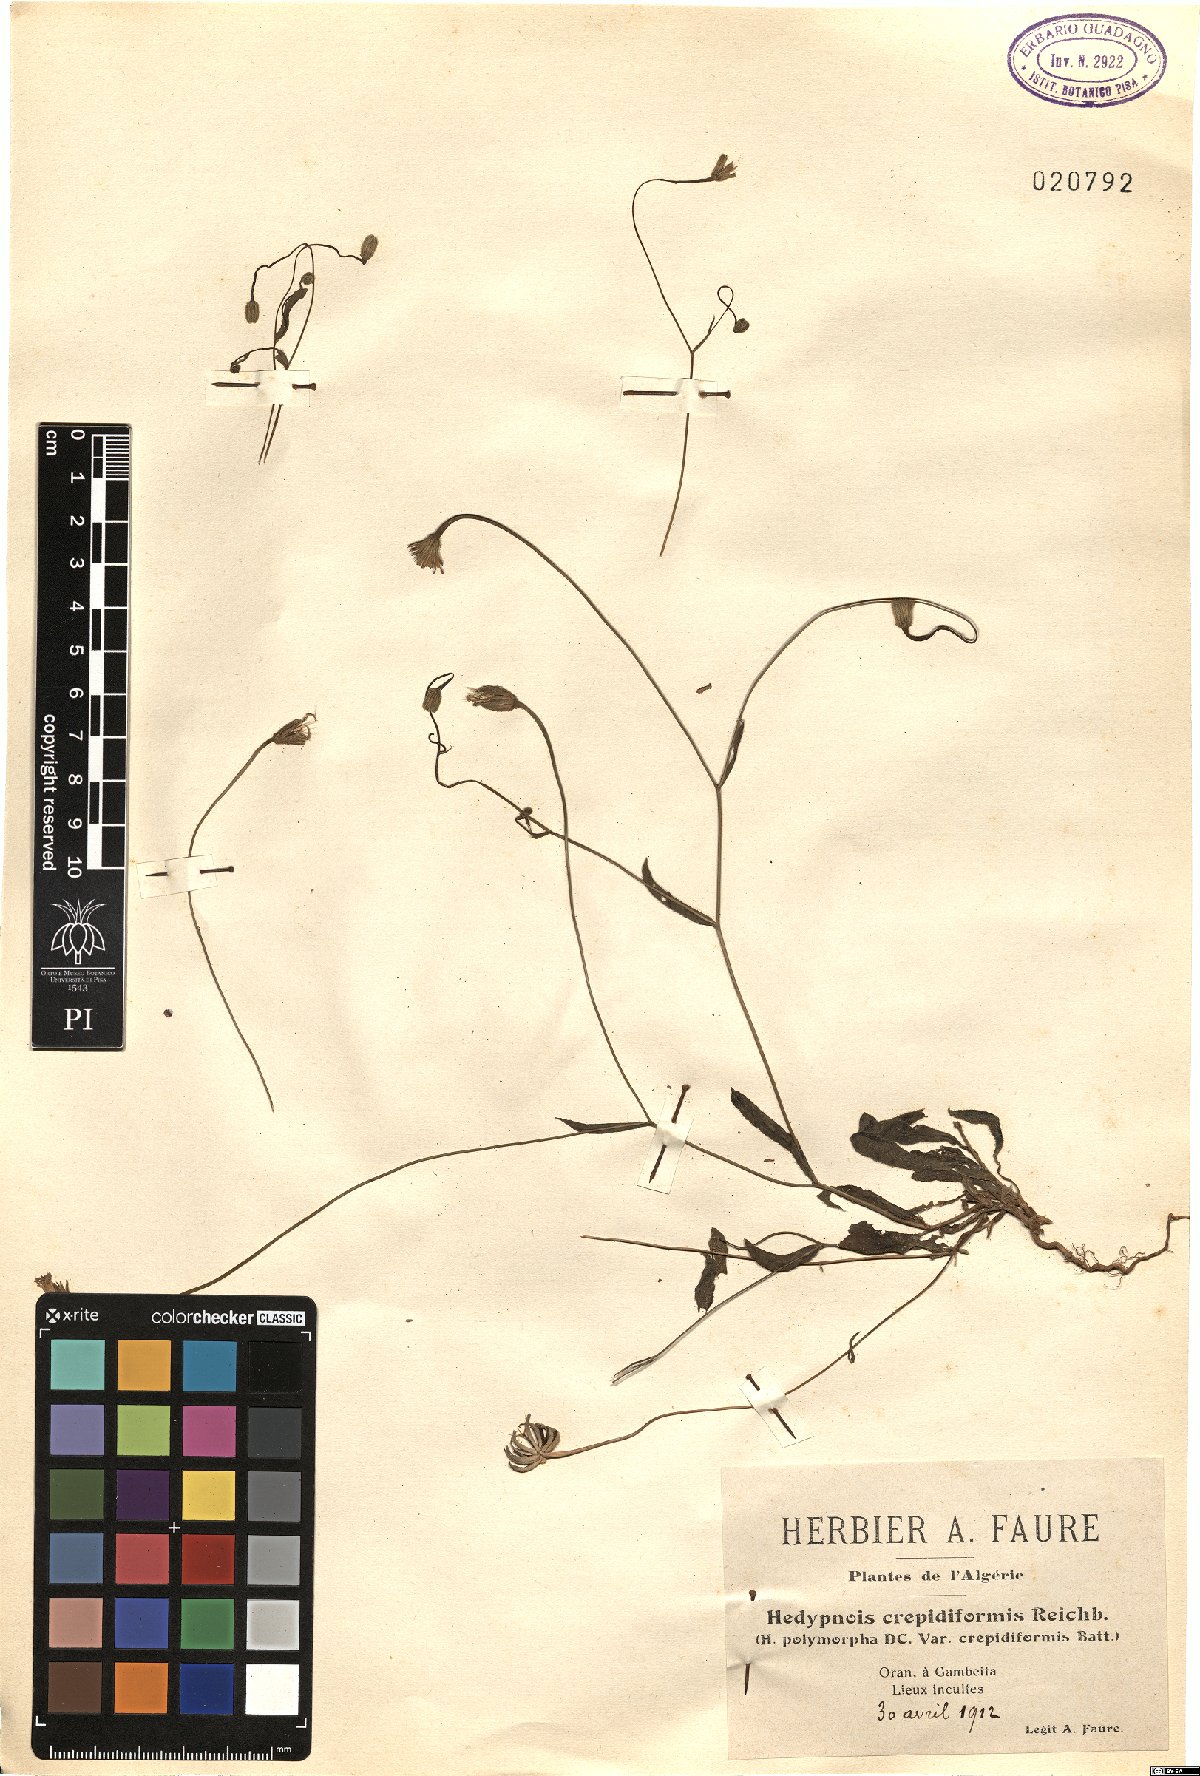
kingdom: Plantae
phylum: Tracheophyta
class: Magnoliopsida
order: Asterales
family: Asteraceae
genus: Hedypnois
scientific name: Hedypnois rhagadioloides
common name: Cretan weed
